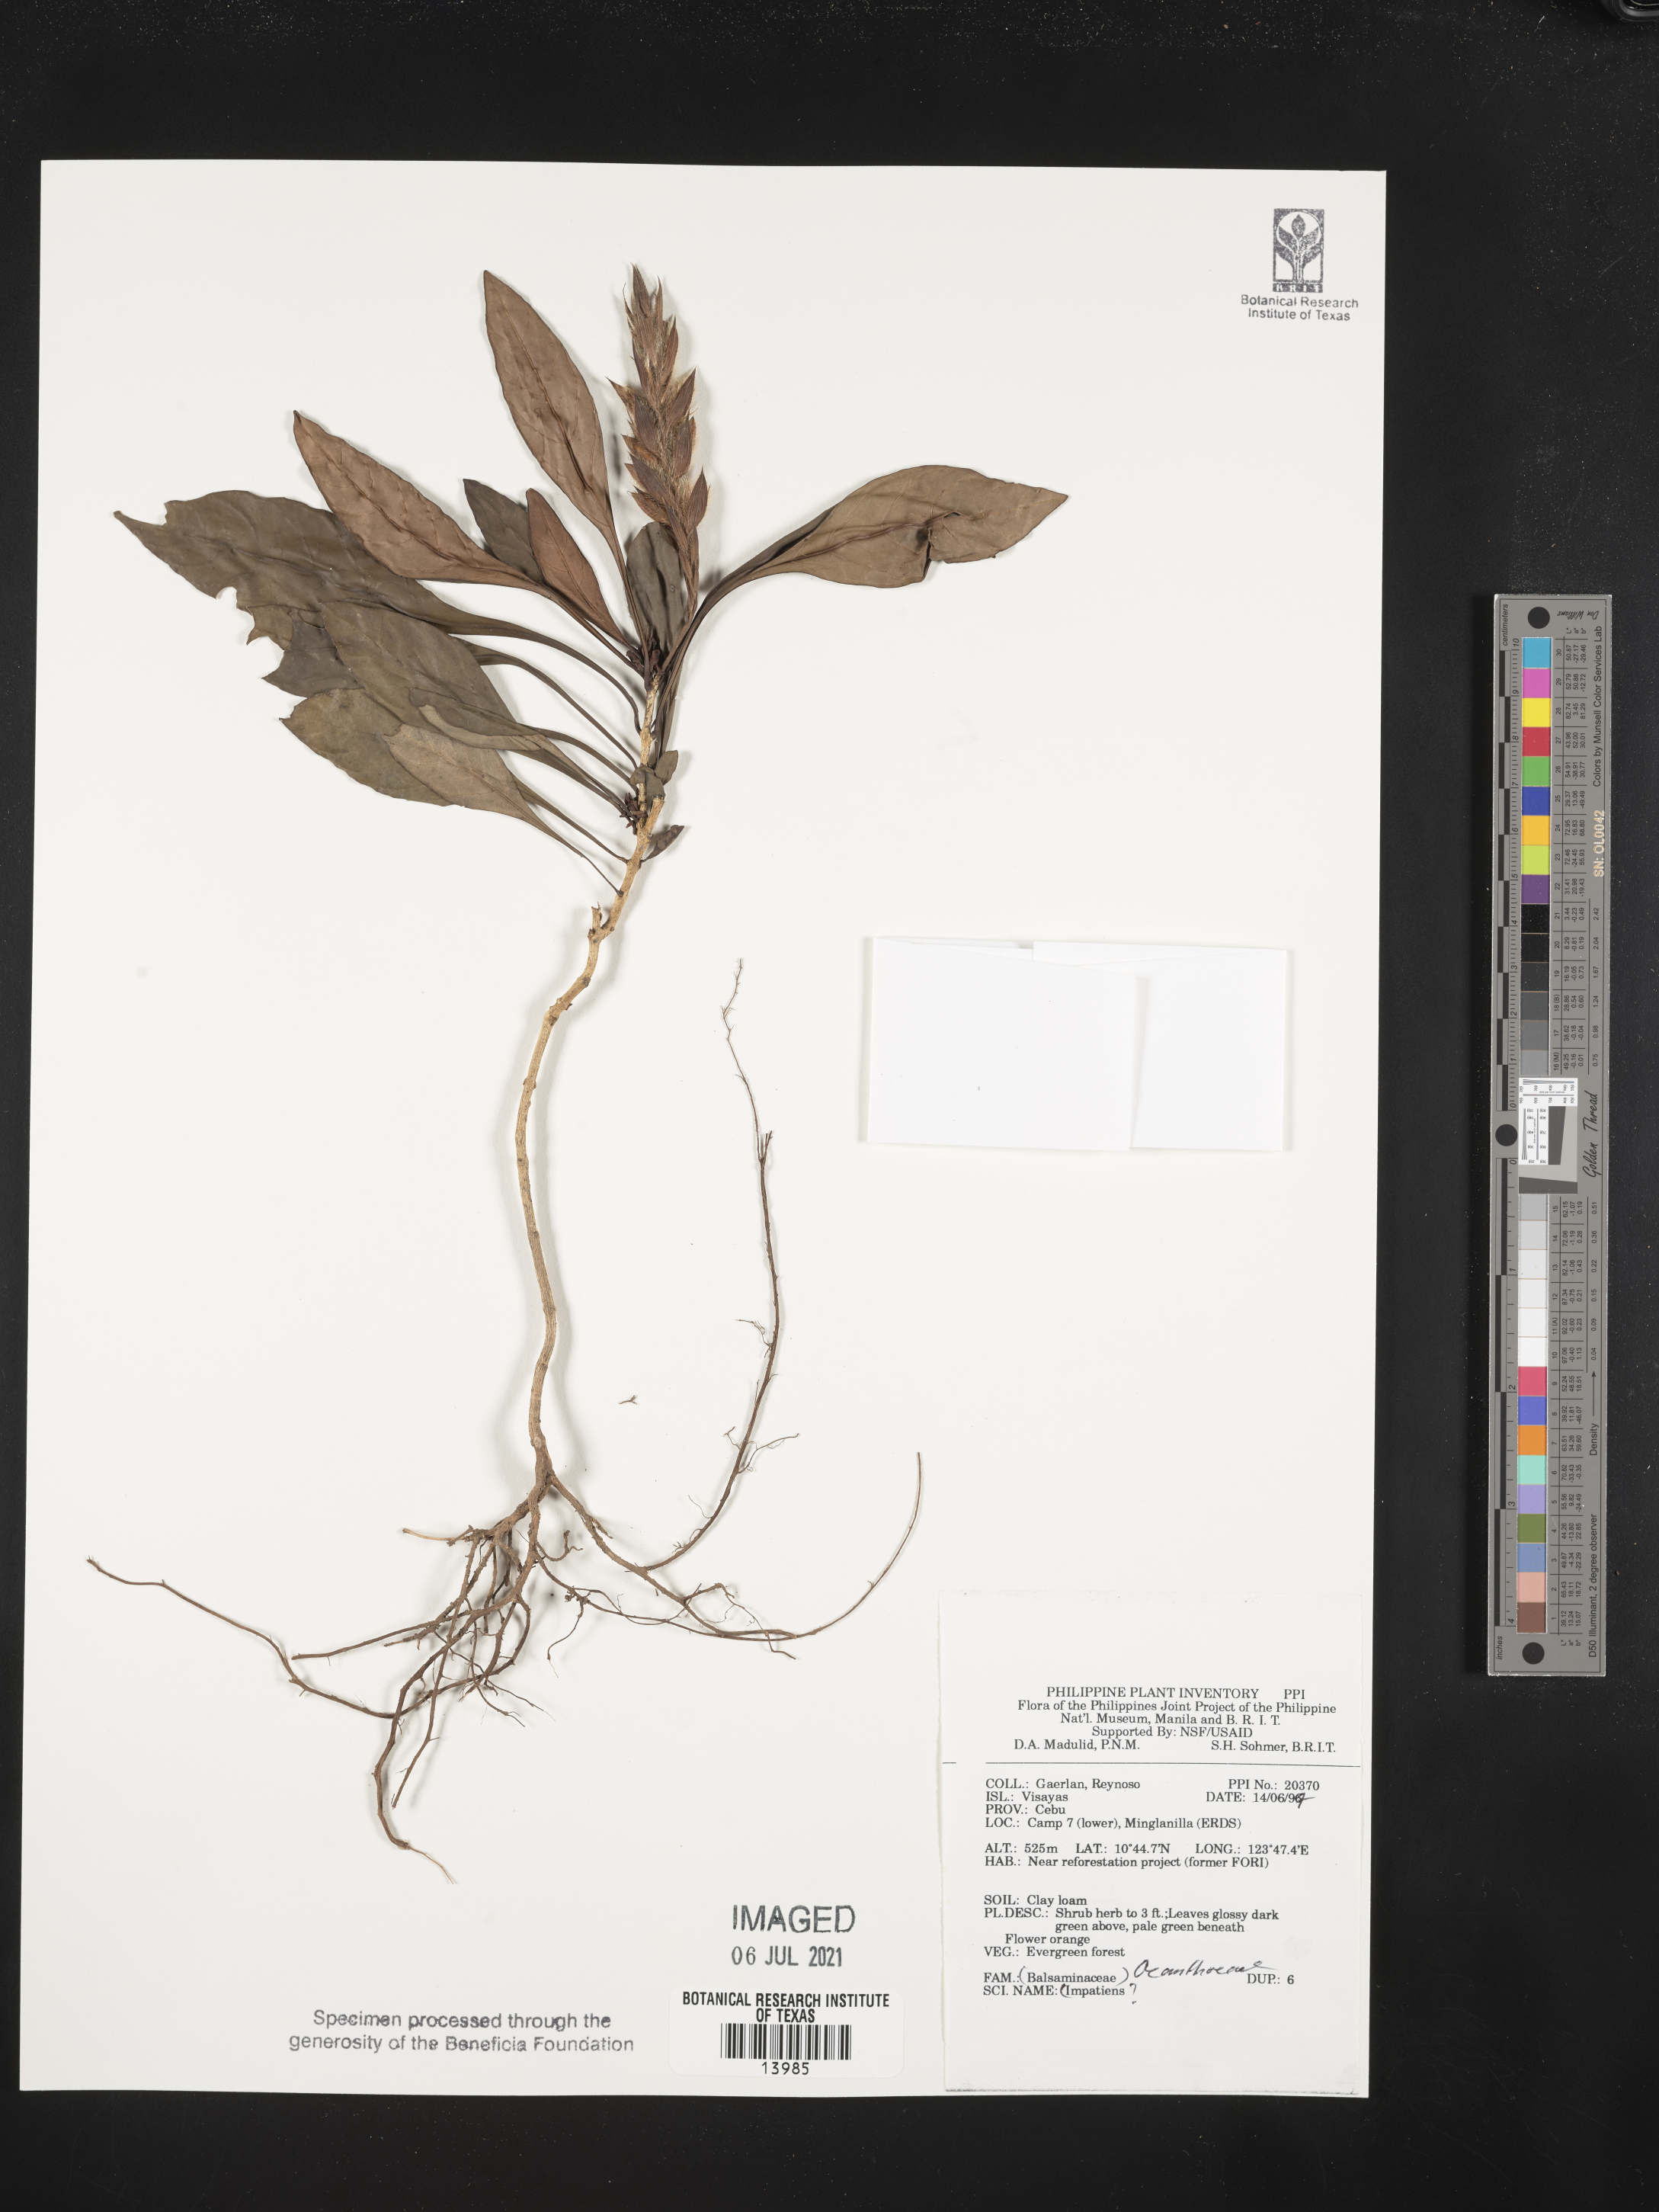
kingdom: Plantae
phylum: Tracheophyta
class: Magnoliopsida
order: Lamiales
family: Acanthaceae
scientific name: Acanthaceae
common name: Acanthaceae
